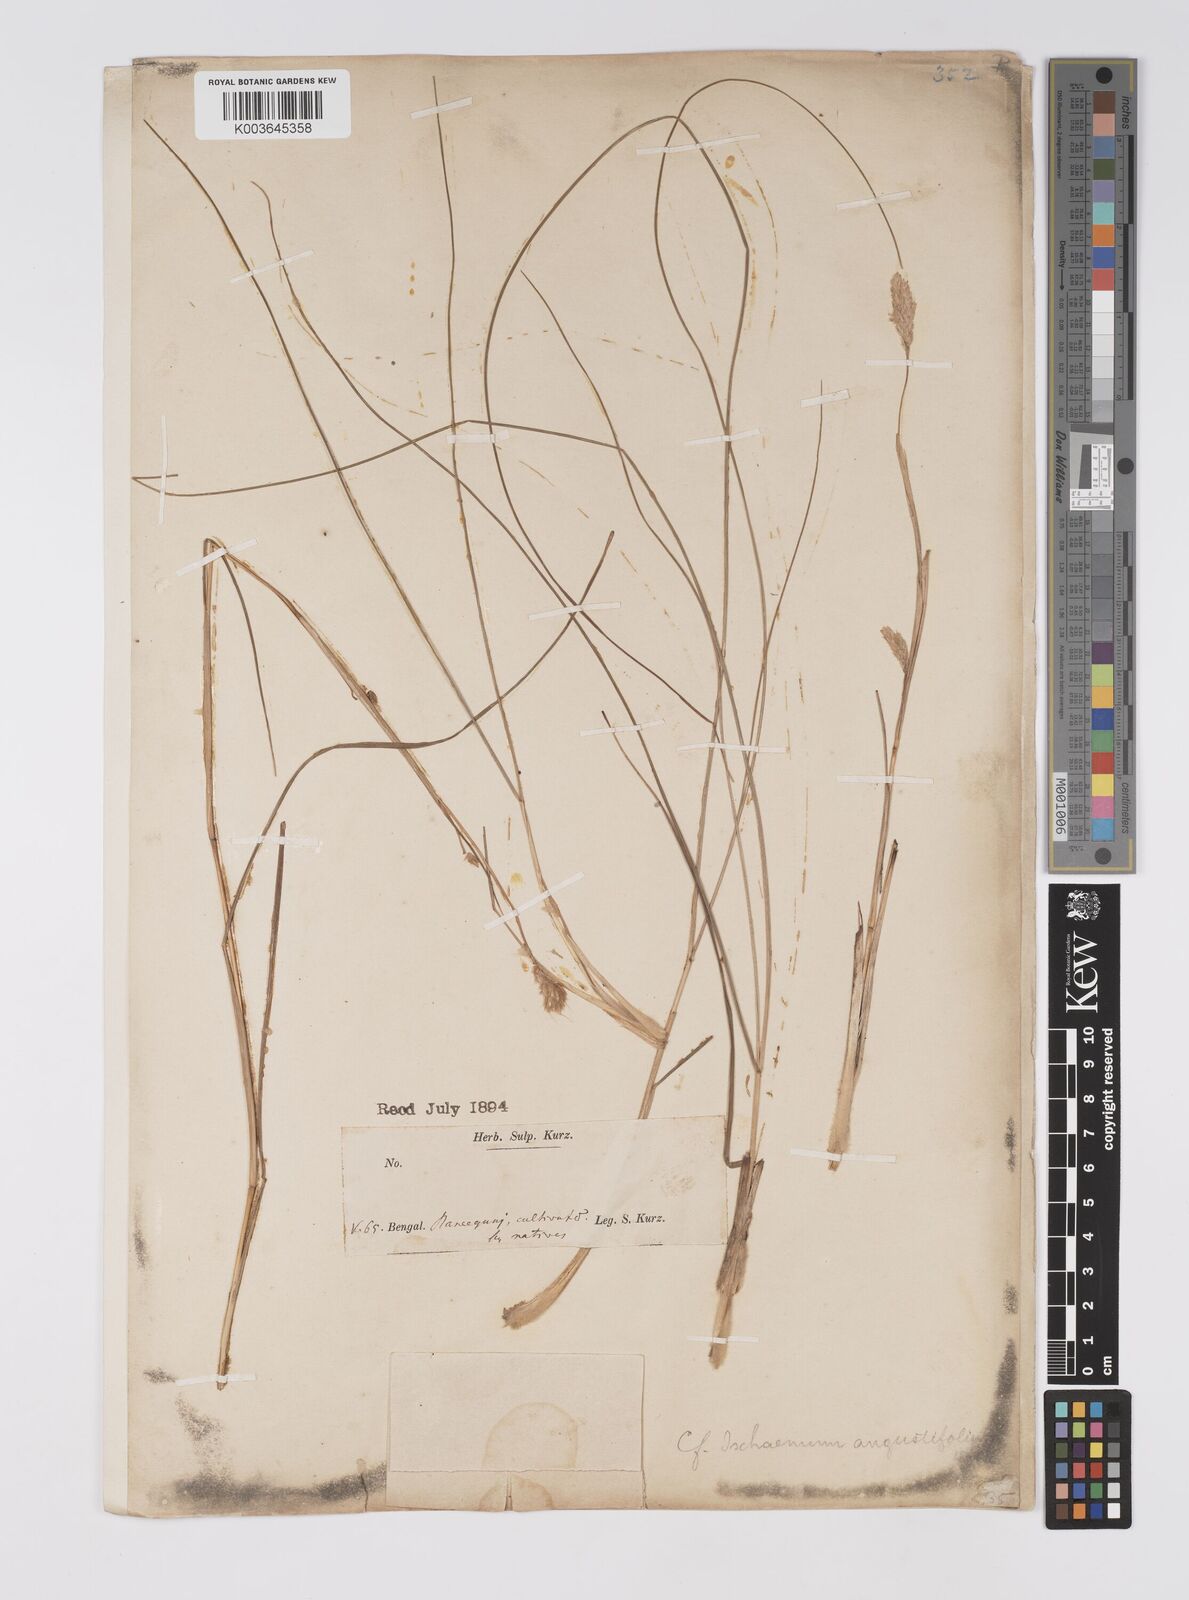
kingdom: Plantae
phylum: Tracheophyta
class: Liliopsida
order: Poales
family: Poaceae
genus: Eulaliopsis
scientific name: Eulaliopsis binata
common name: Baib grass
